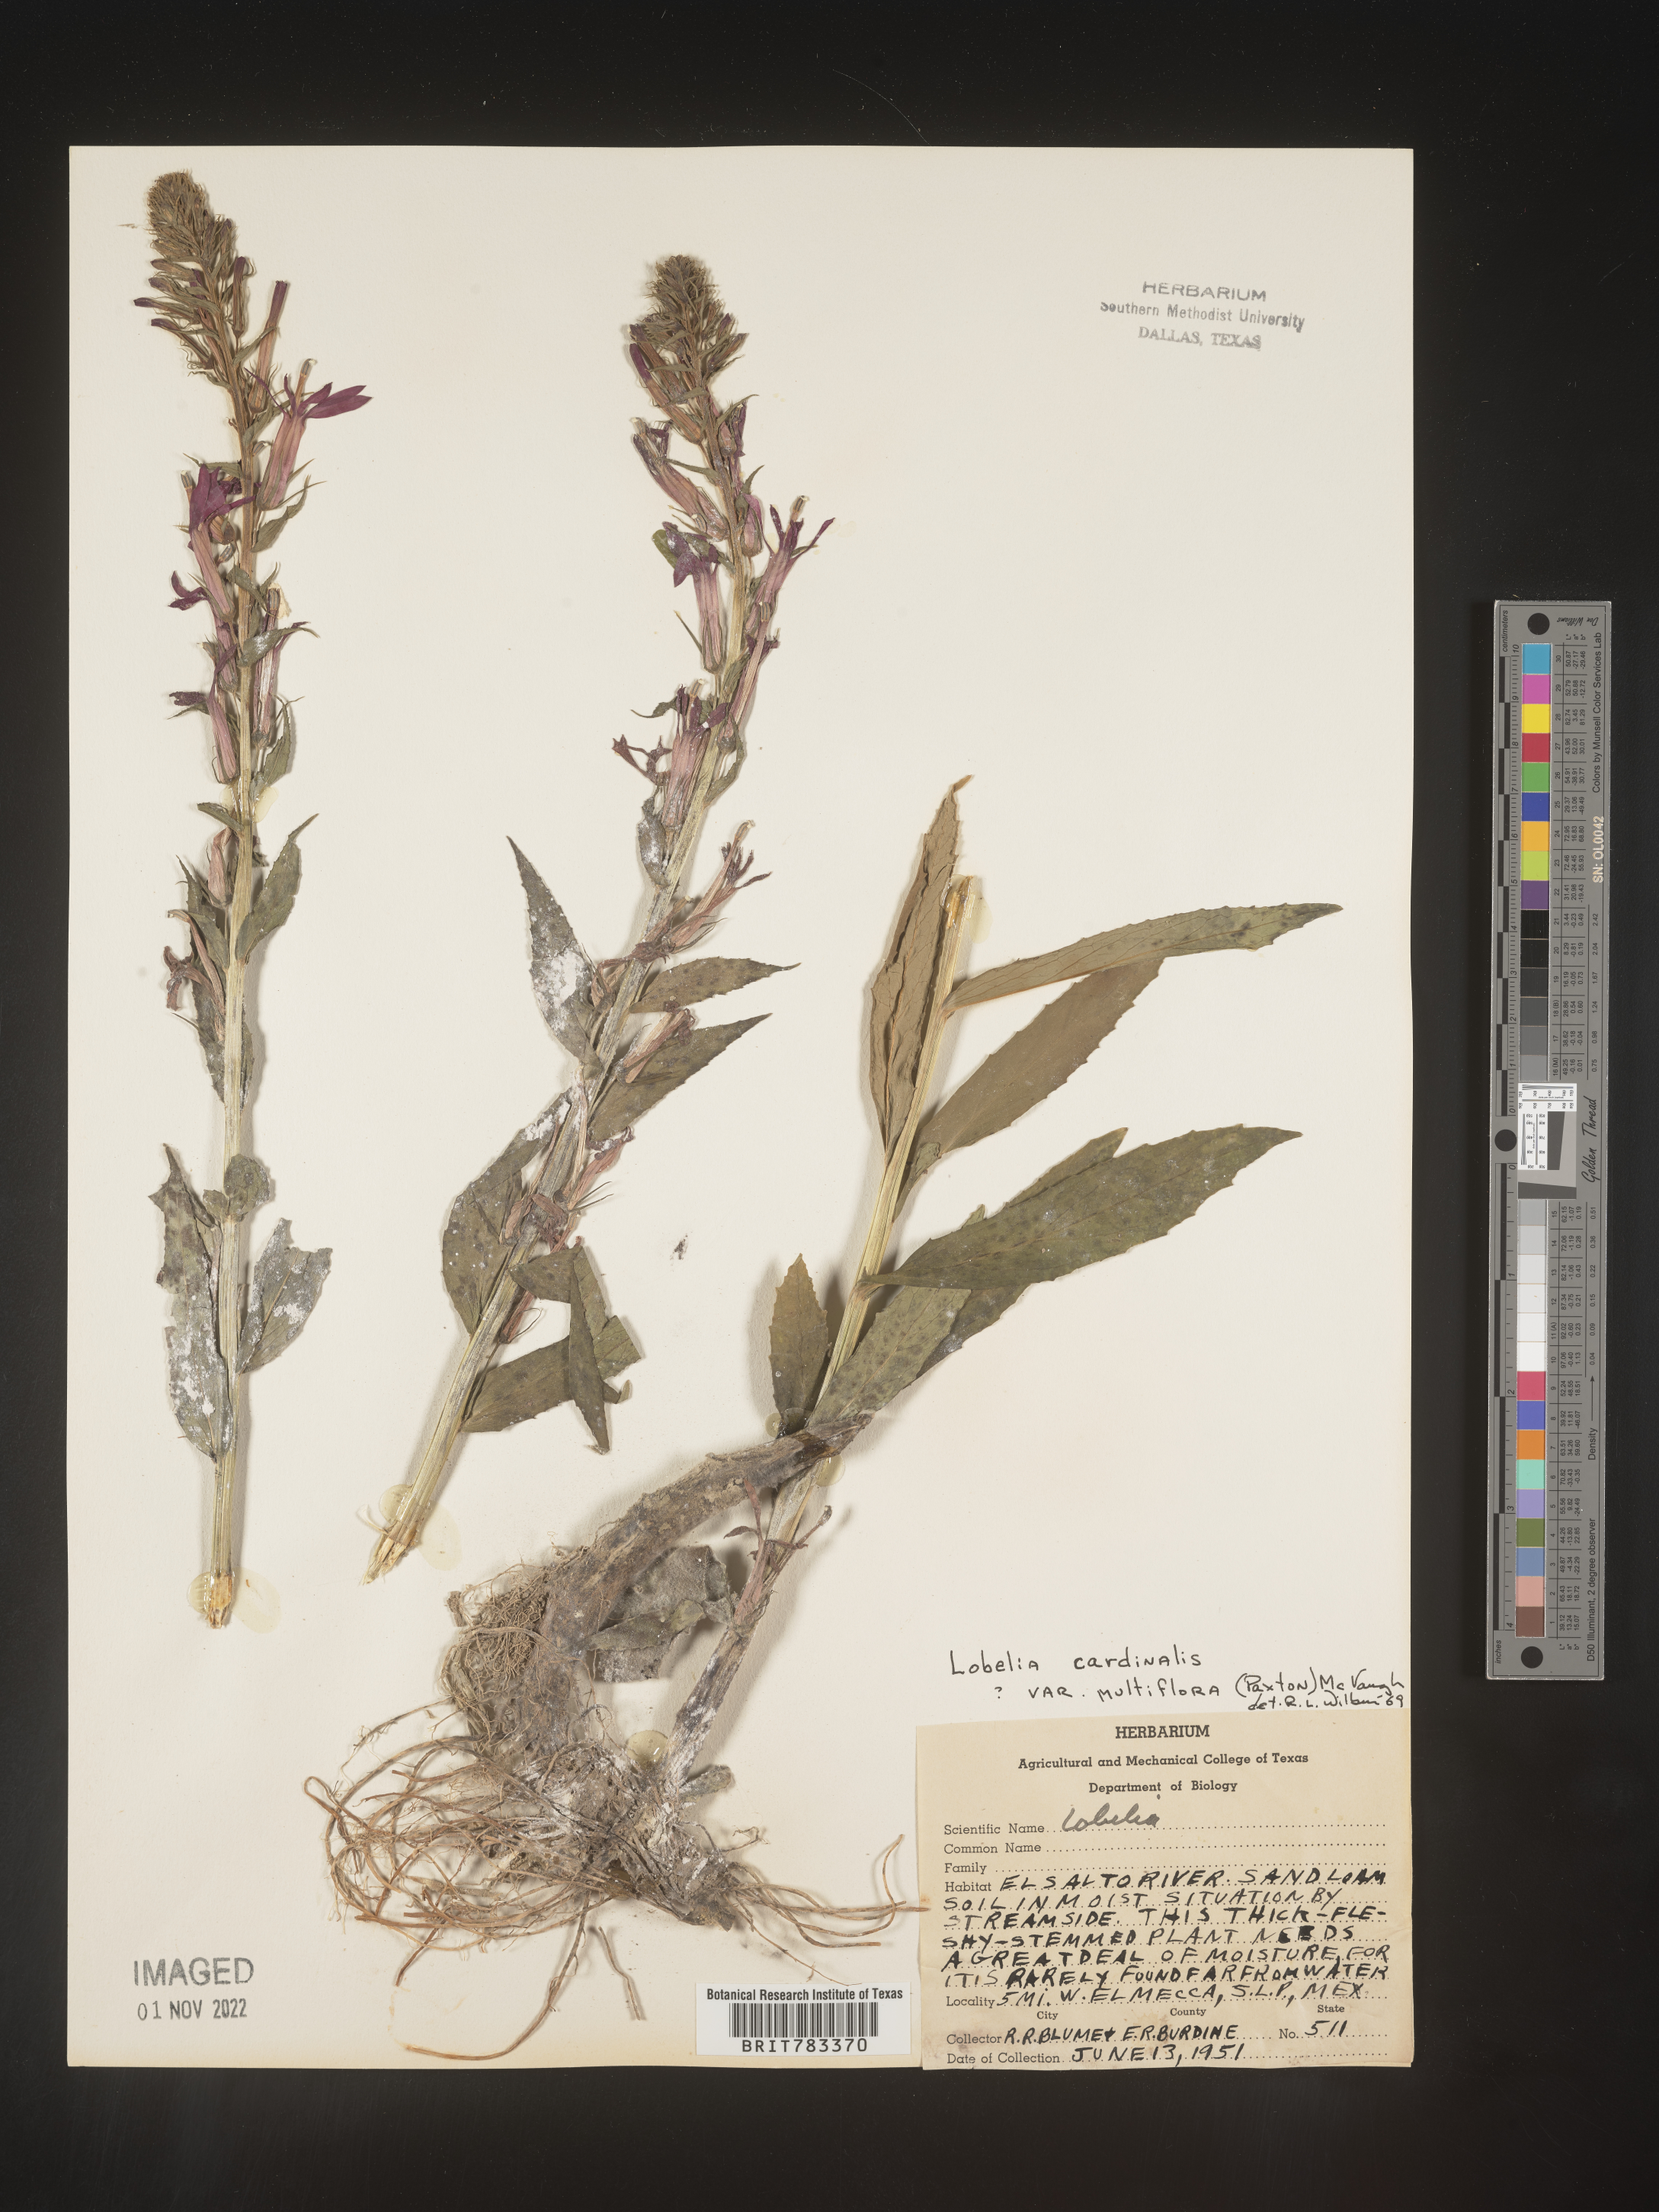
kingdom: Plantae
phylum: Tracheophyta
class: Magnoliopsida
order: Asterales
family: Campanulaceae
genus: Lobelia
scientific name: Lobelia
